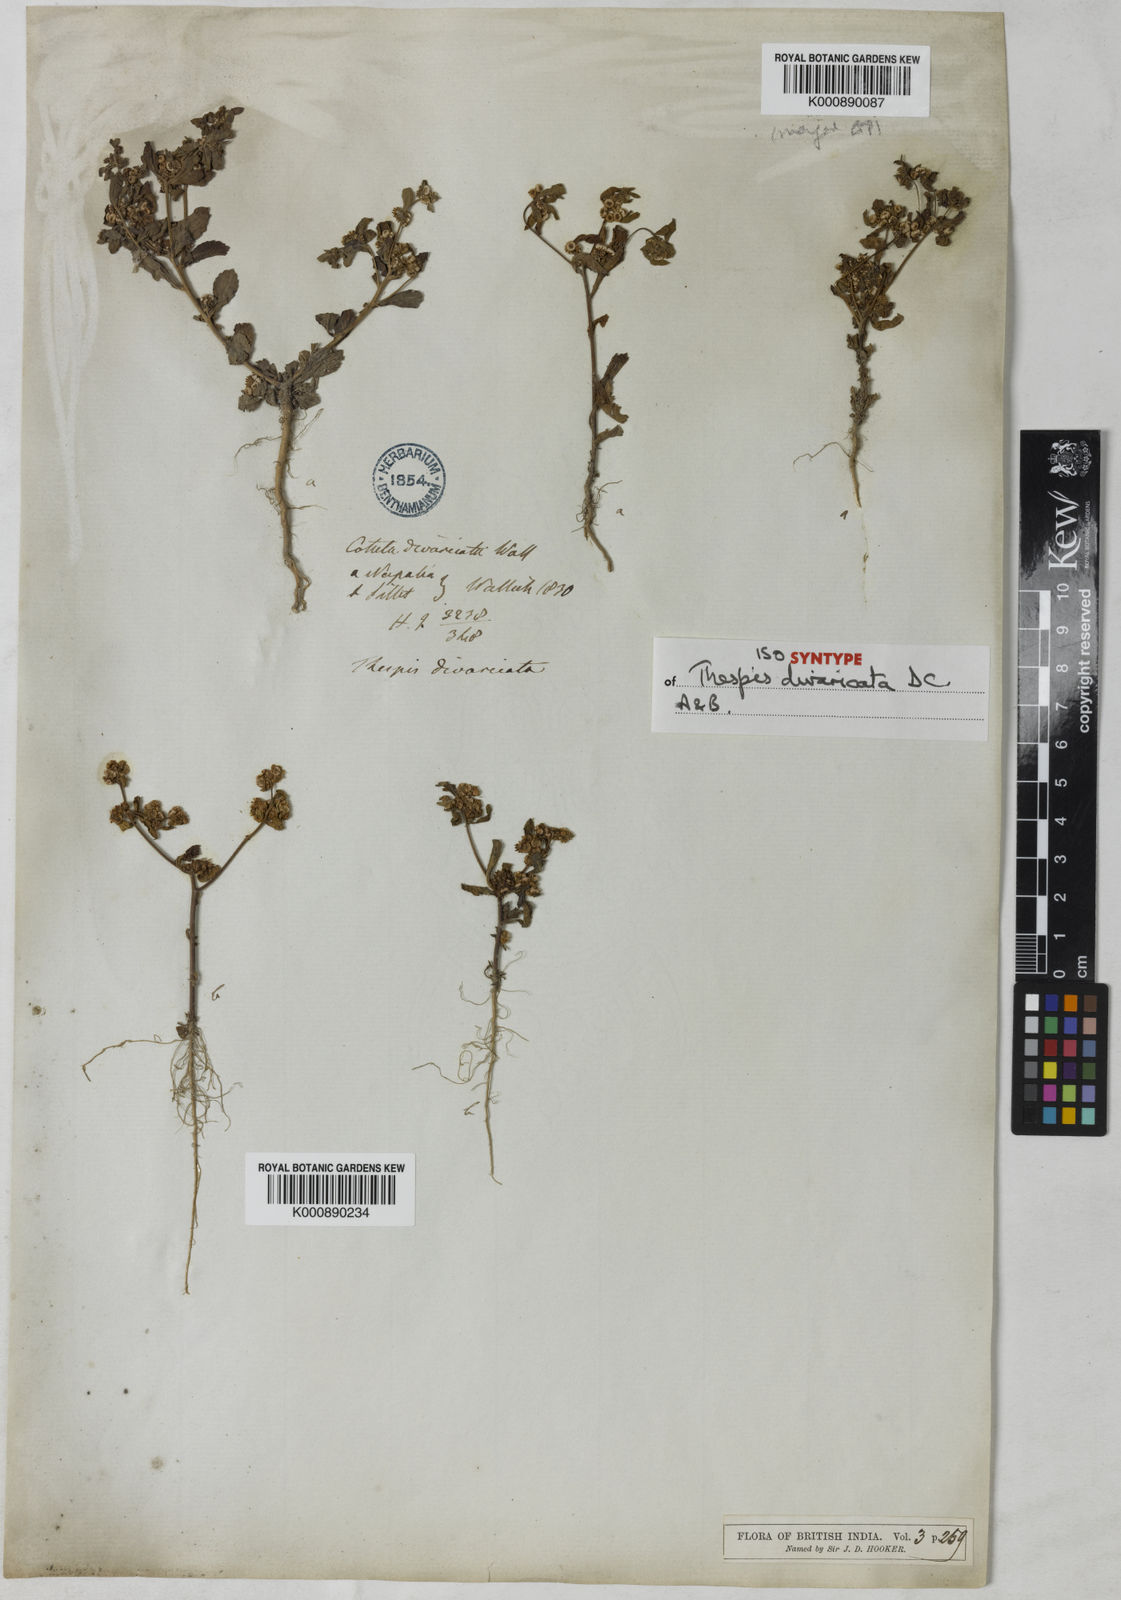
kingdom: Plantae
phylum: Tracheophyta
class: Magnoliopsida
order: Asterales
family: Asteraceae
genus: Thespis
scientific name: Thespis divaricata
